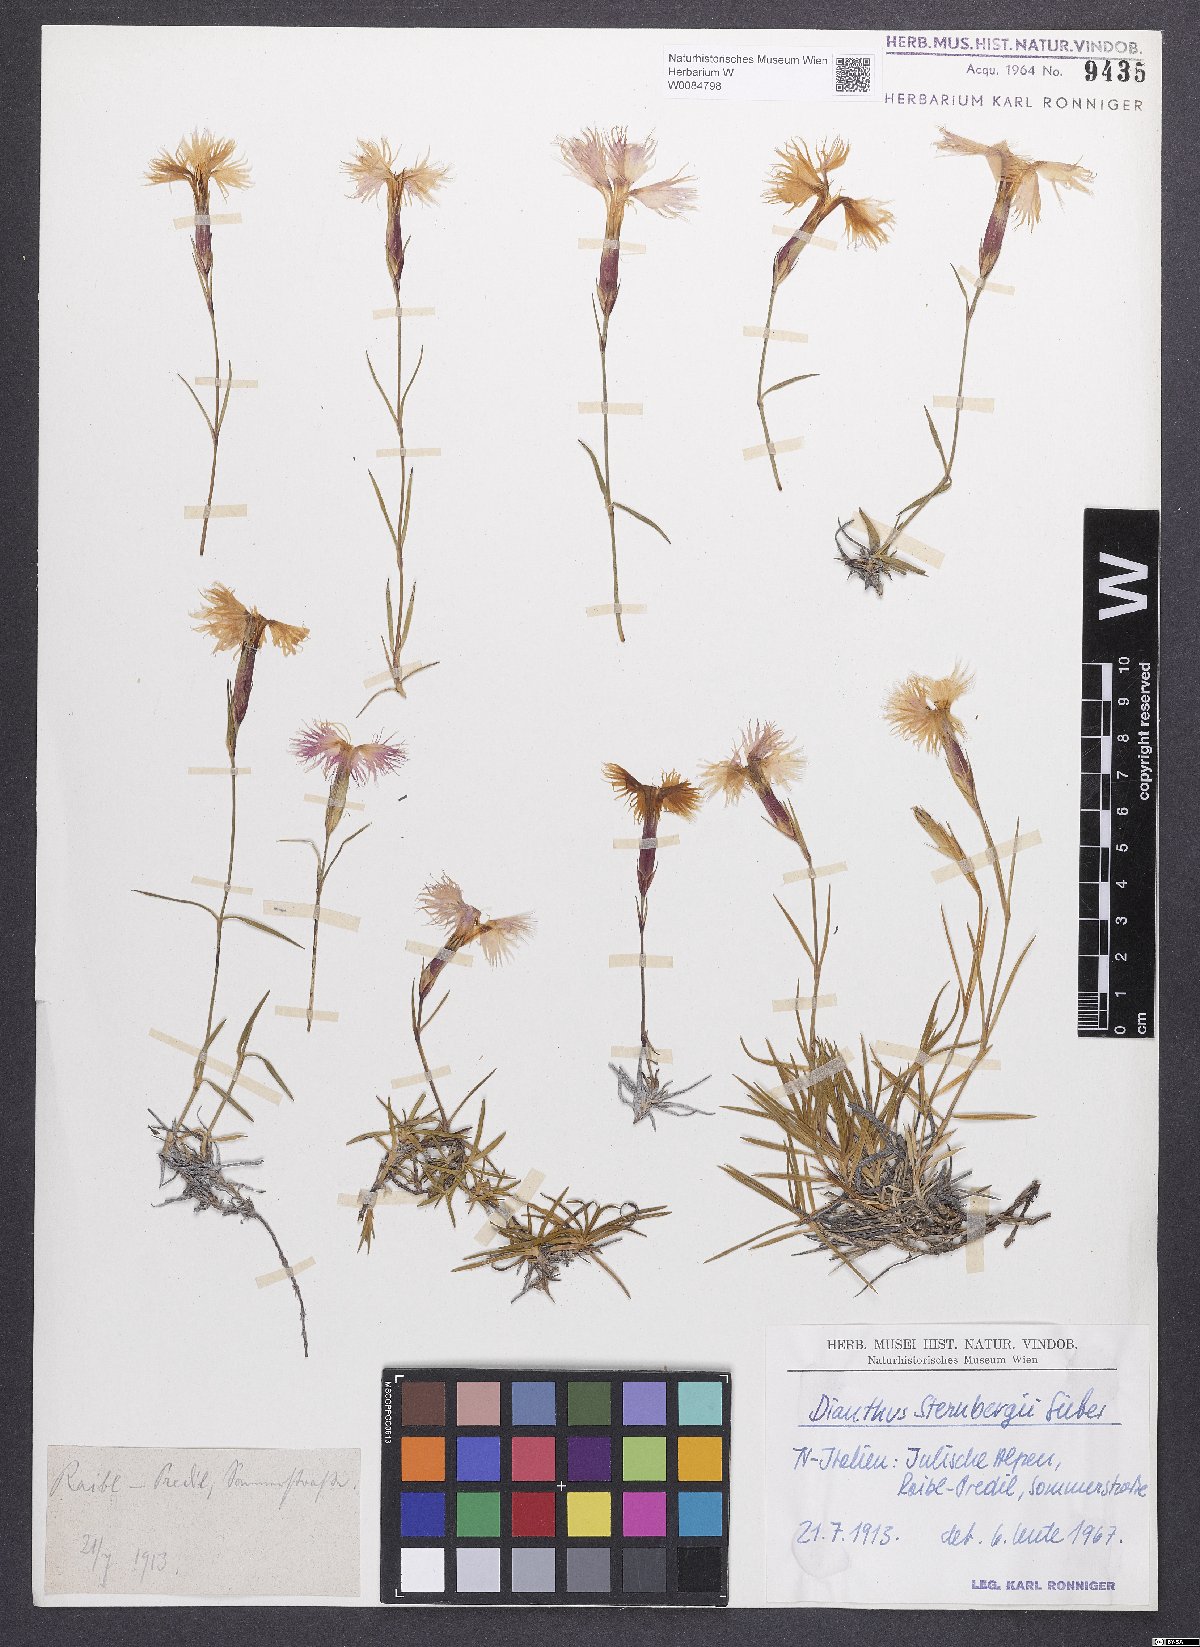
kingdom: Plantae
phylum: Tracheophyta
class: Magnoliopsida
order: Caryophyllales
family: Caryophyllaceae
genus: Dianthus
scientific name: Dianthus monspessulanus
